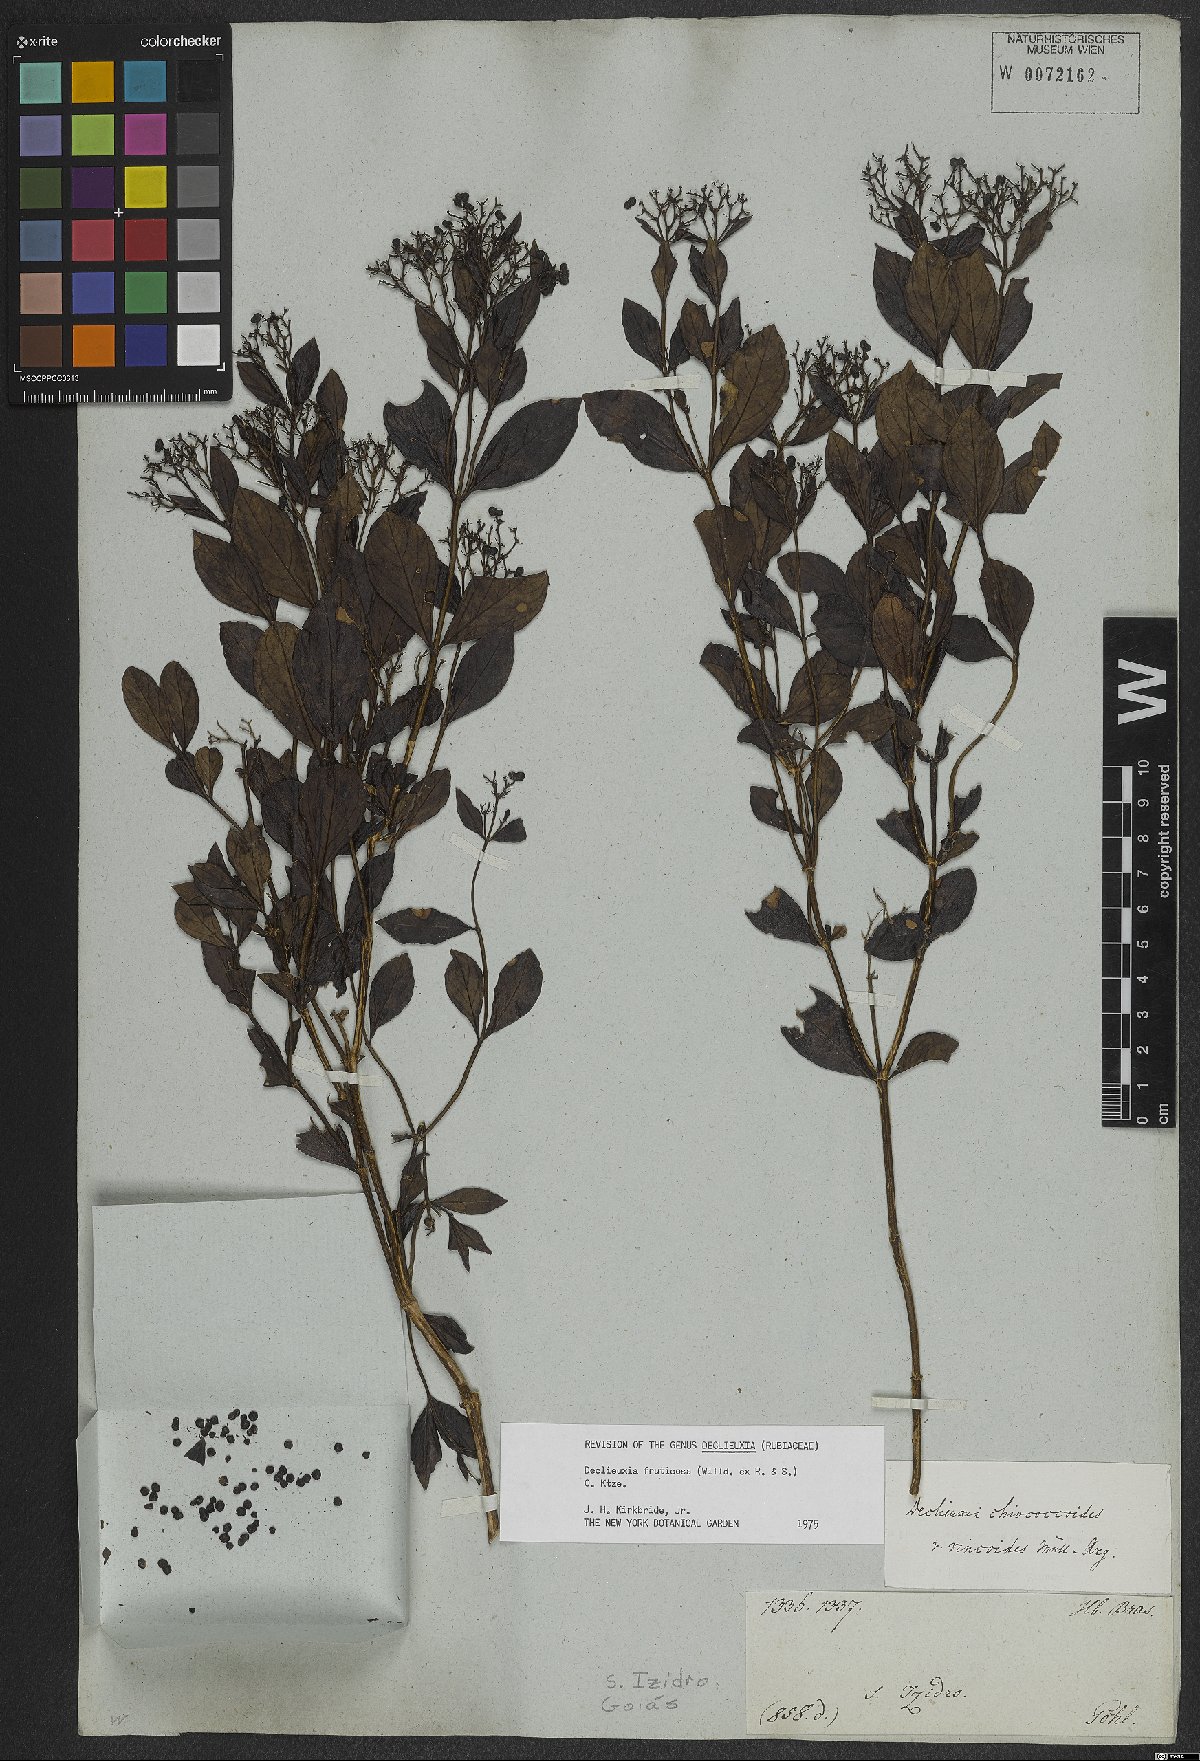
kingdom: Plantae
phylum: Tracheophyta
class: Magnoliopsida
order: Gentianales
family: Rubiaceae
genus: Declieuxia
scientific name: Declieuxia fruticosa
